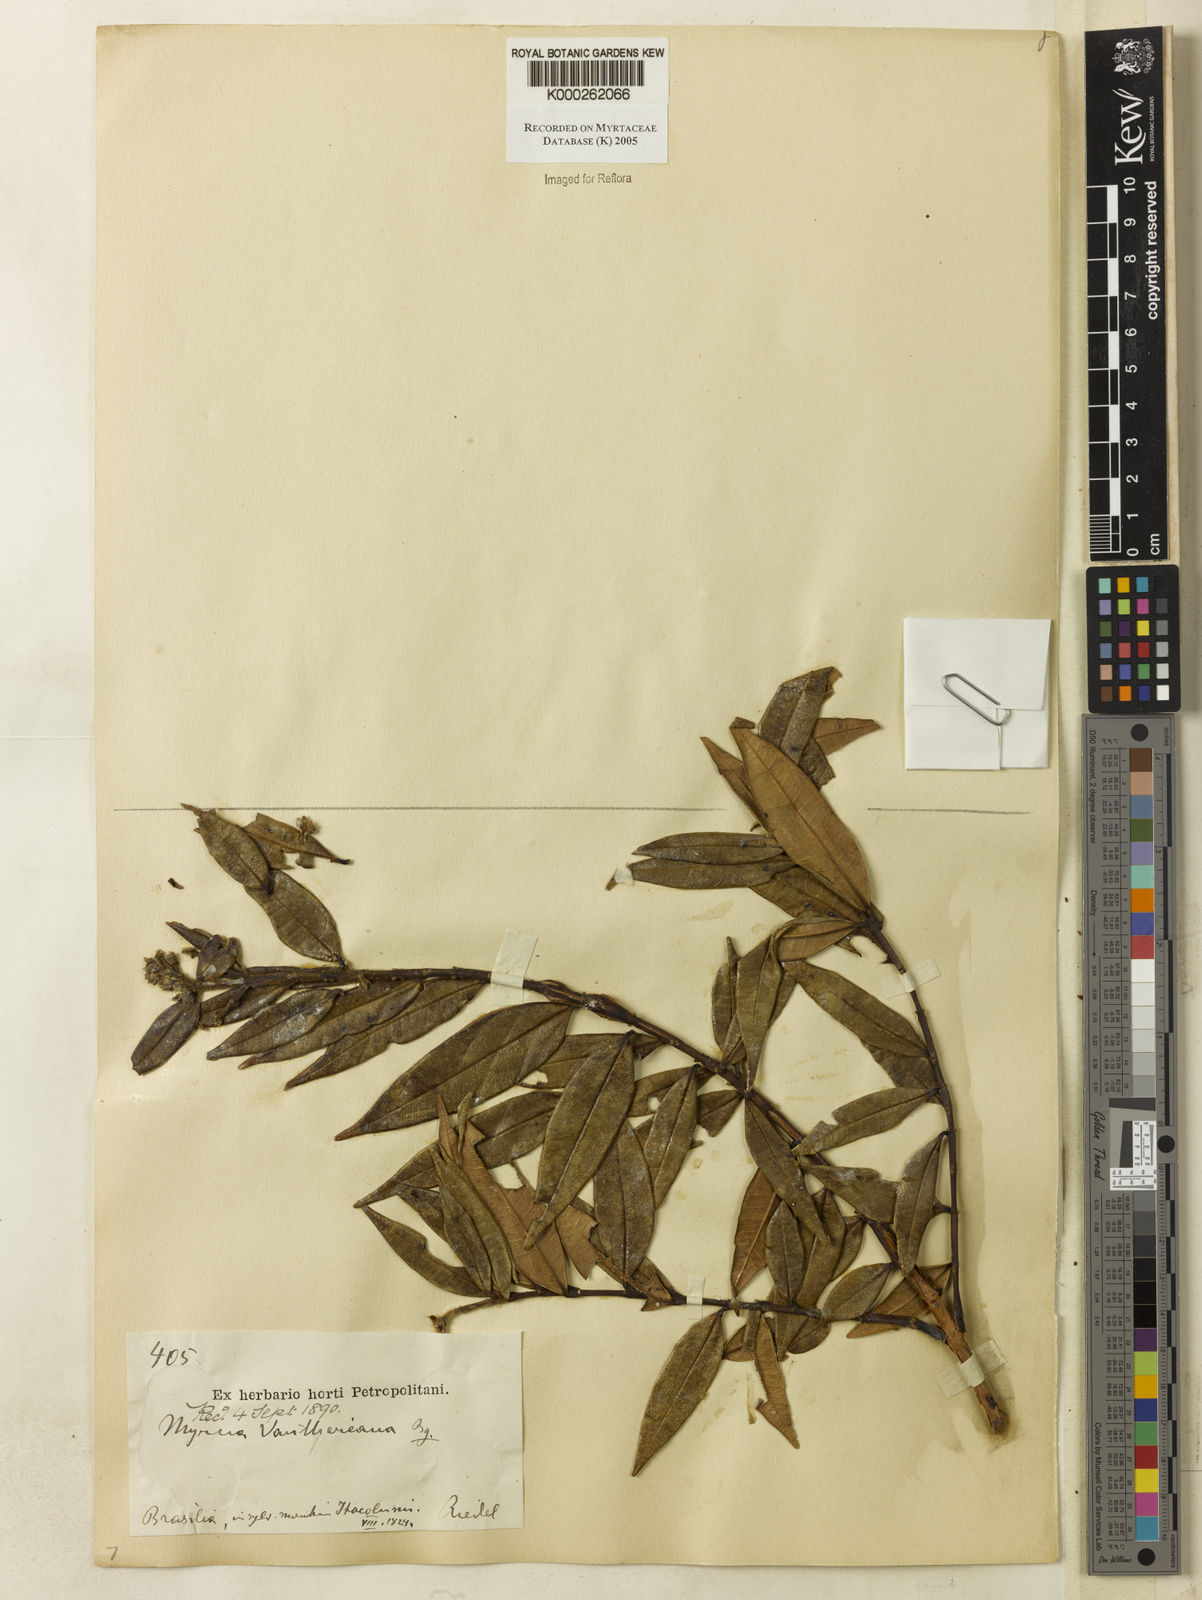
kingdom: Plantae
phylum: Tracheophyta
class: Magnoliopsida
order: Myrtales
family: Myrtaceae
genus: Myrcia
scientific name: Myrcia vauthiereana
